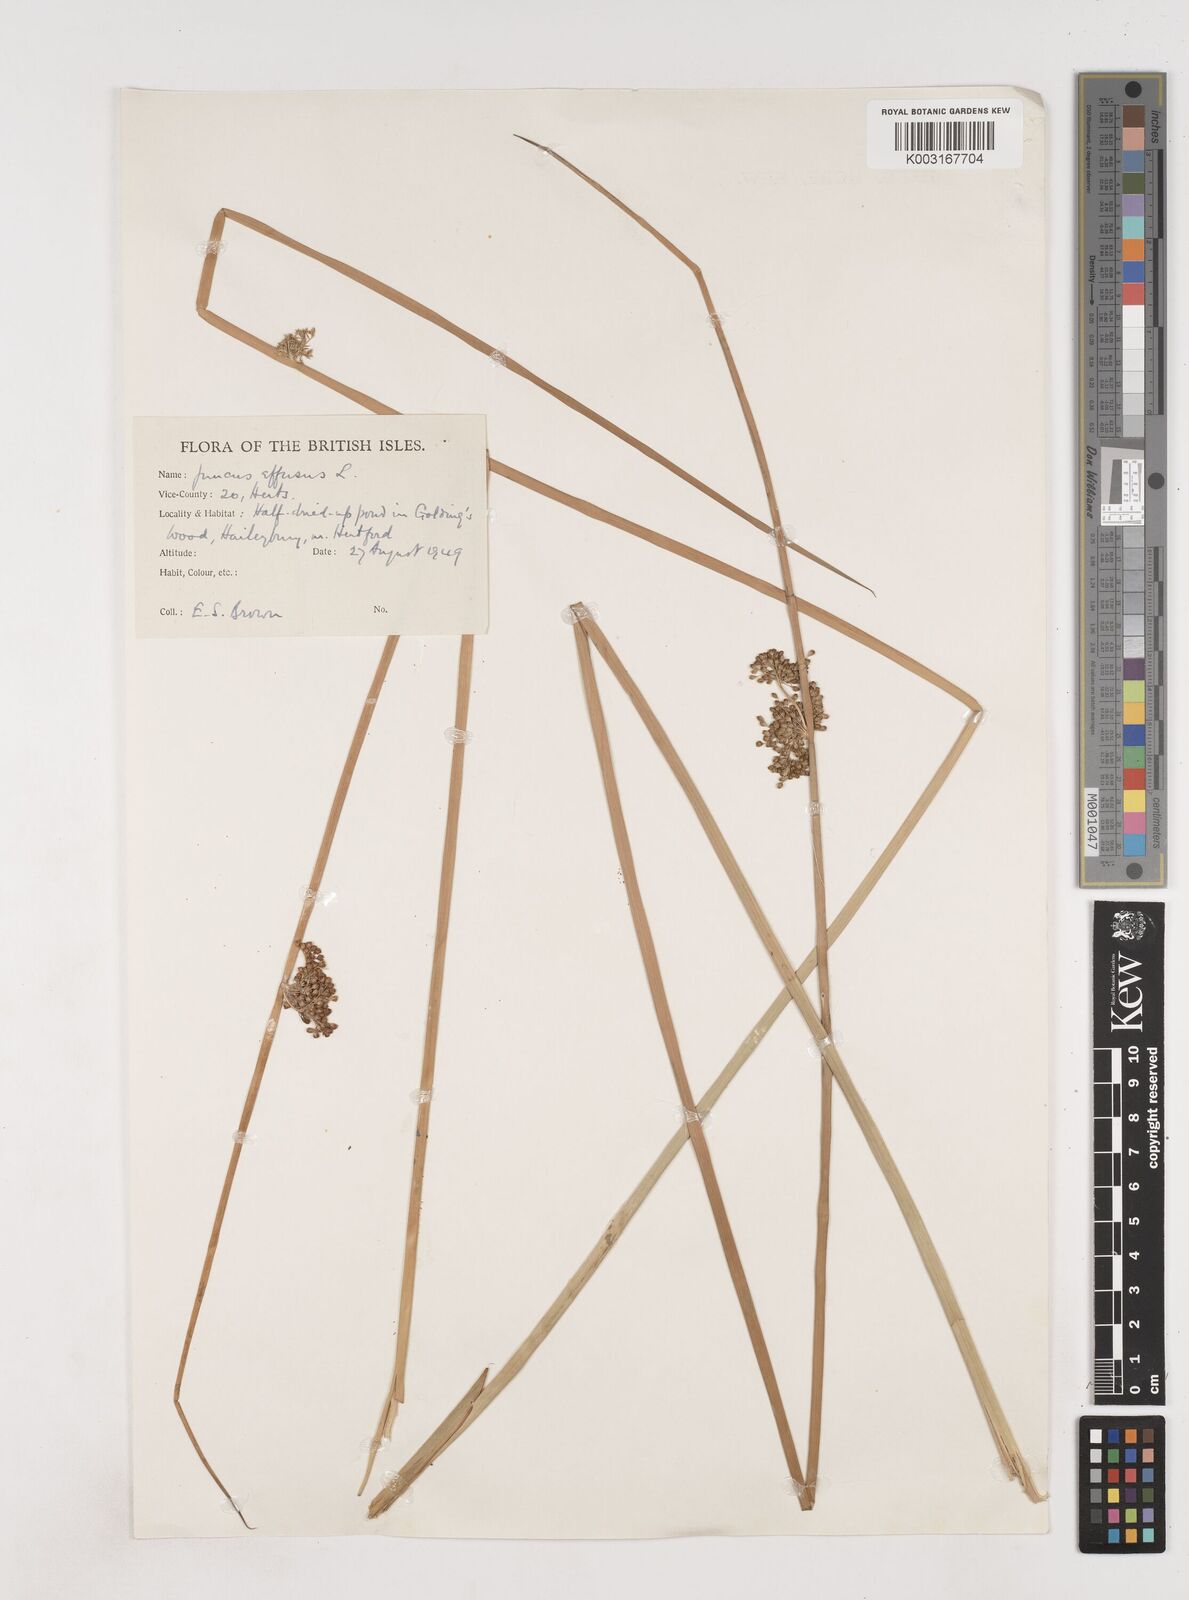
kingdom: Plantae
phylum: Tracheophyta
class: Liliopsida
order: Poales
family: Juncaceae
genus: Juncus
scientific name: Juncus effusus
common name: Soft rush
